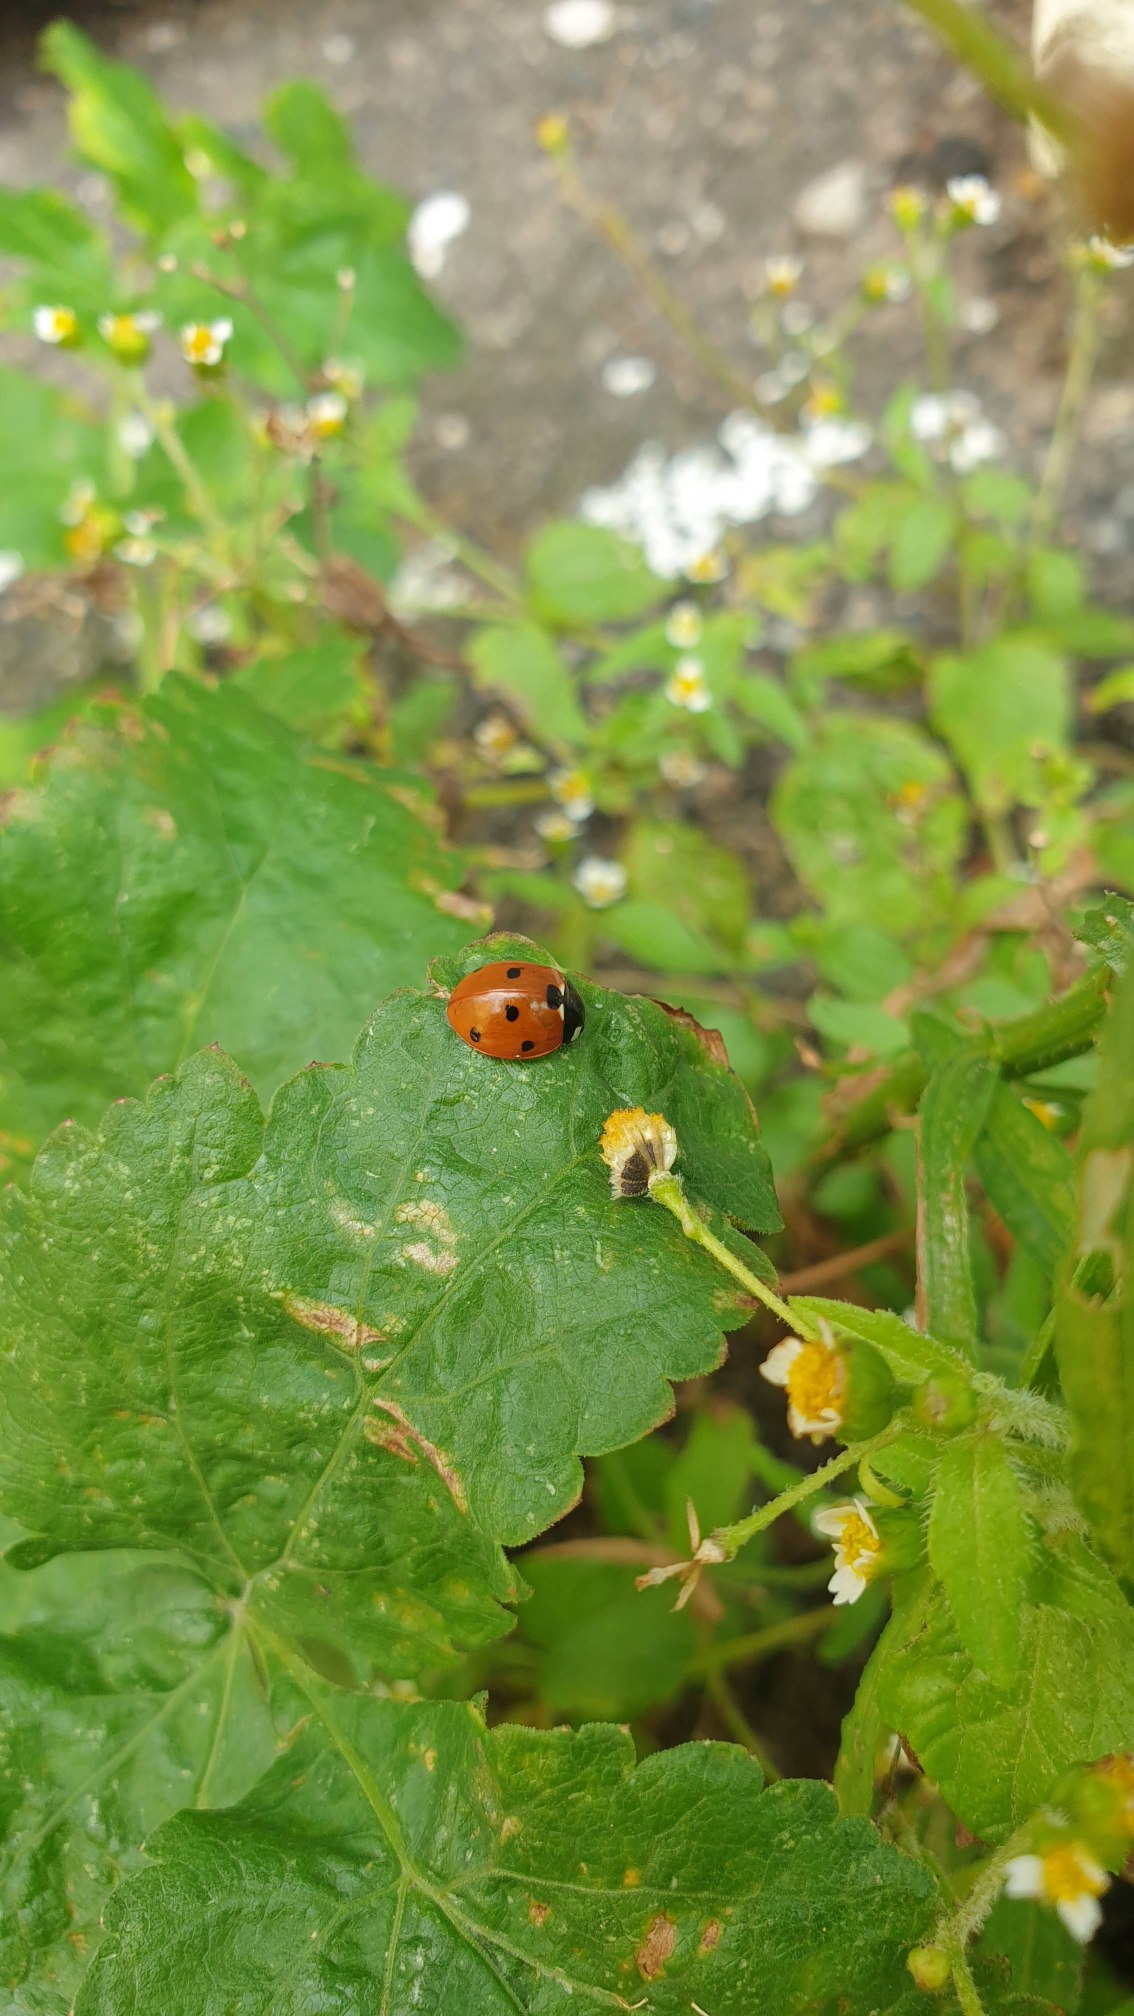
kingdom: Animalia
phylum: Arthropoda
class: Insecta
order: Coleoptera
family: Coccinellidae
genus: Coccinella
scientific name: Coccinella septempunctata
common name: Syvplettet mariehøne
